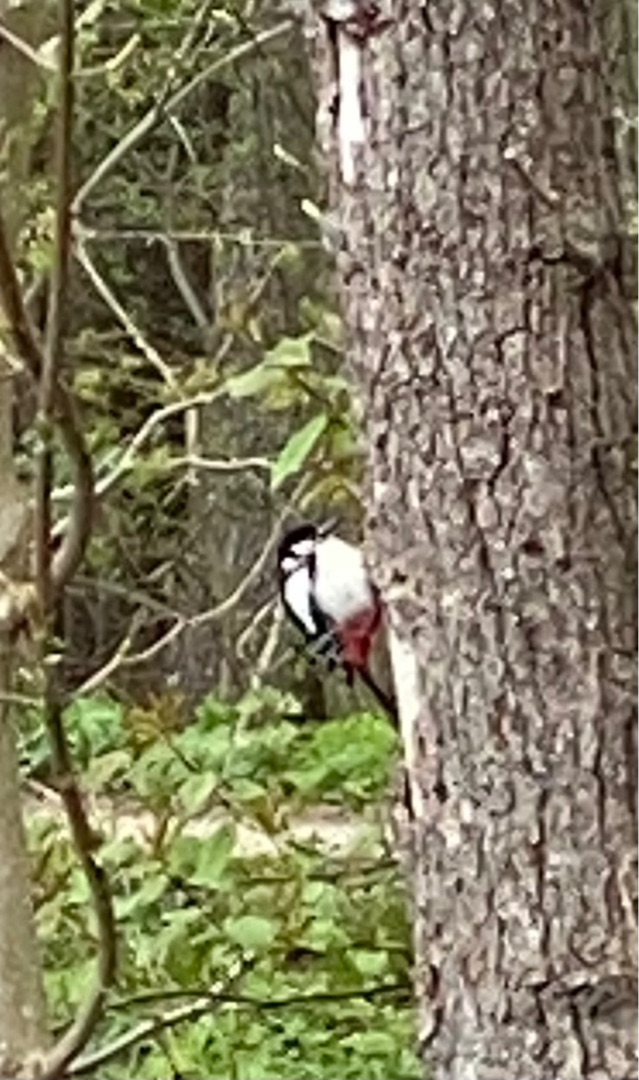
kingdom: Animalia
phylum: Chordata
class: Aves
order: Piciformes
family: Picidae
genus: Dendrocopos
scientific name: Dendrocopos major
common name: Stor flagspætte
